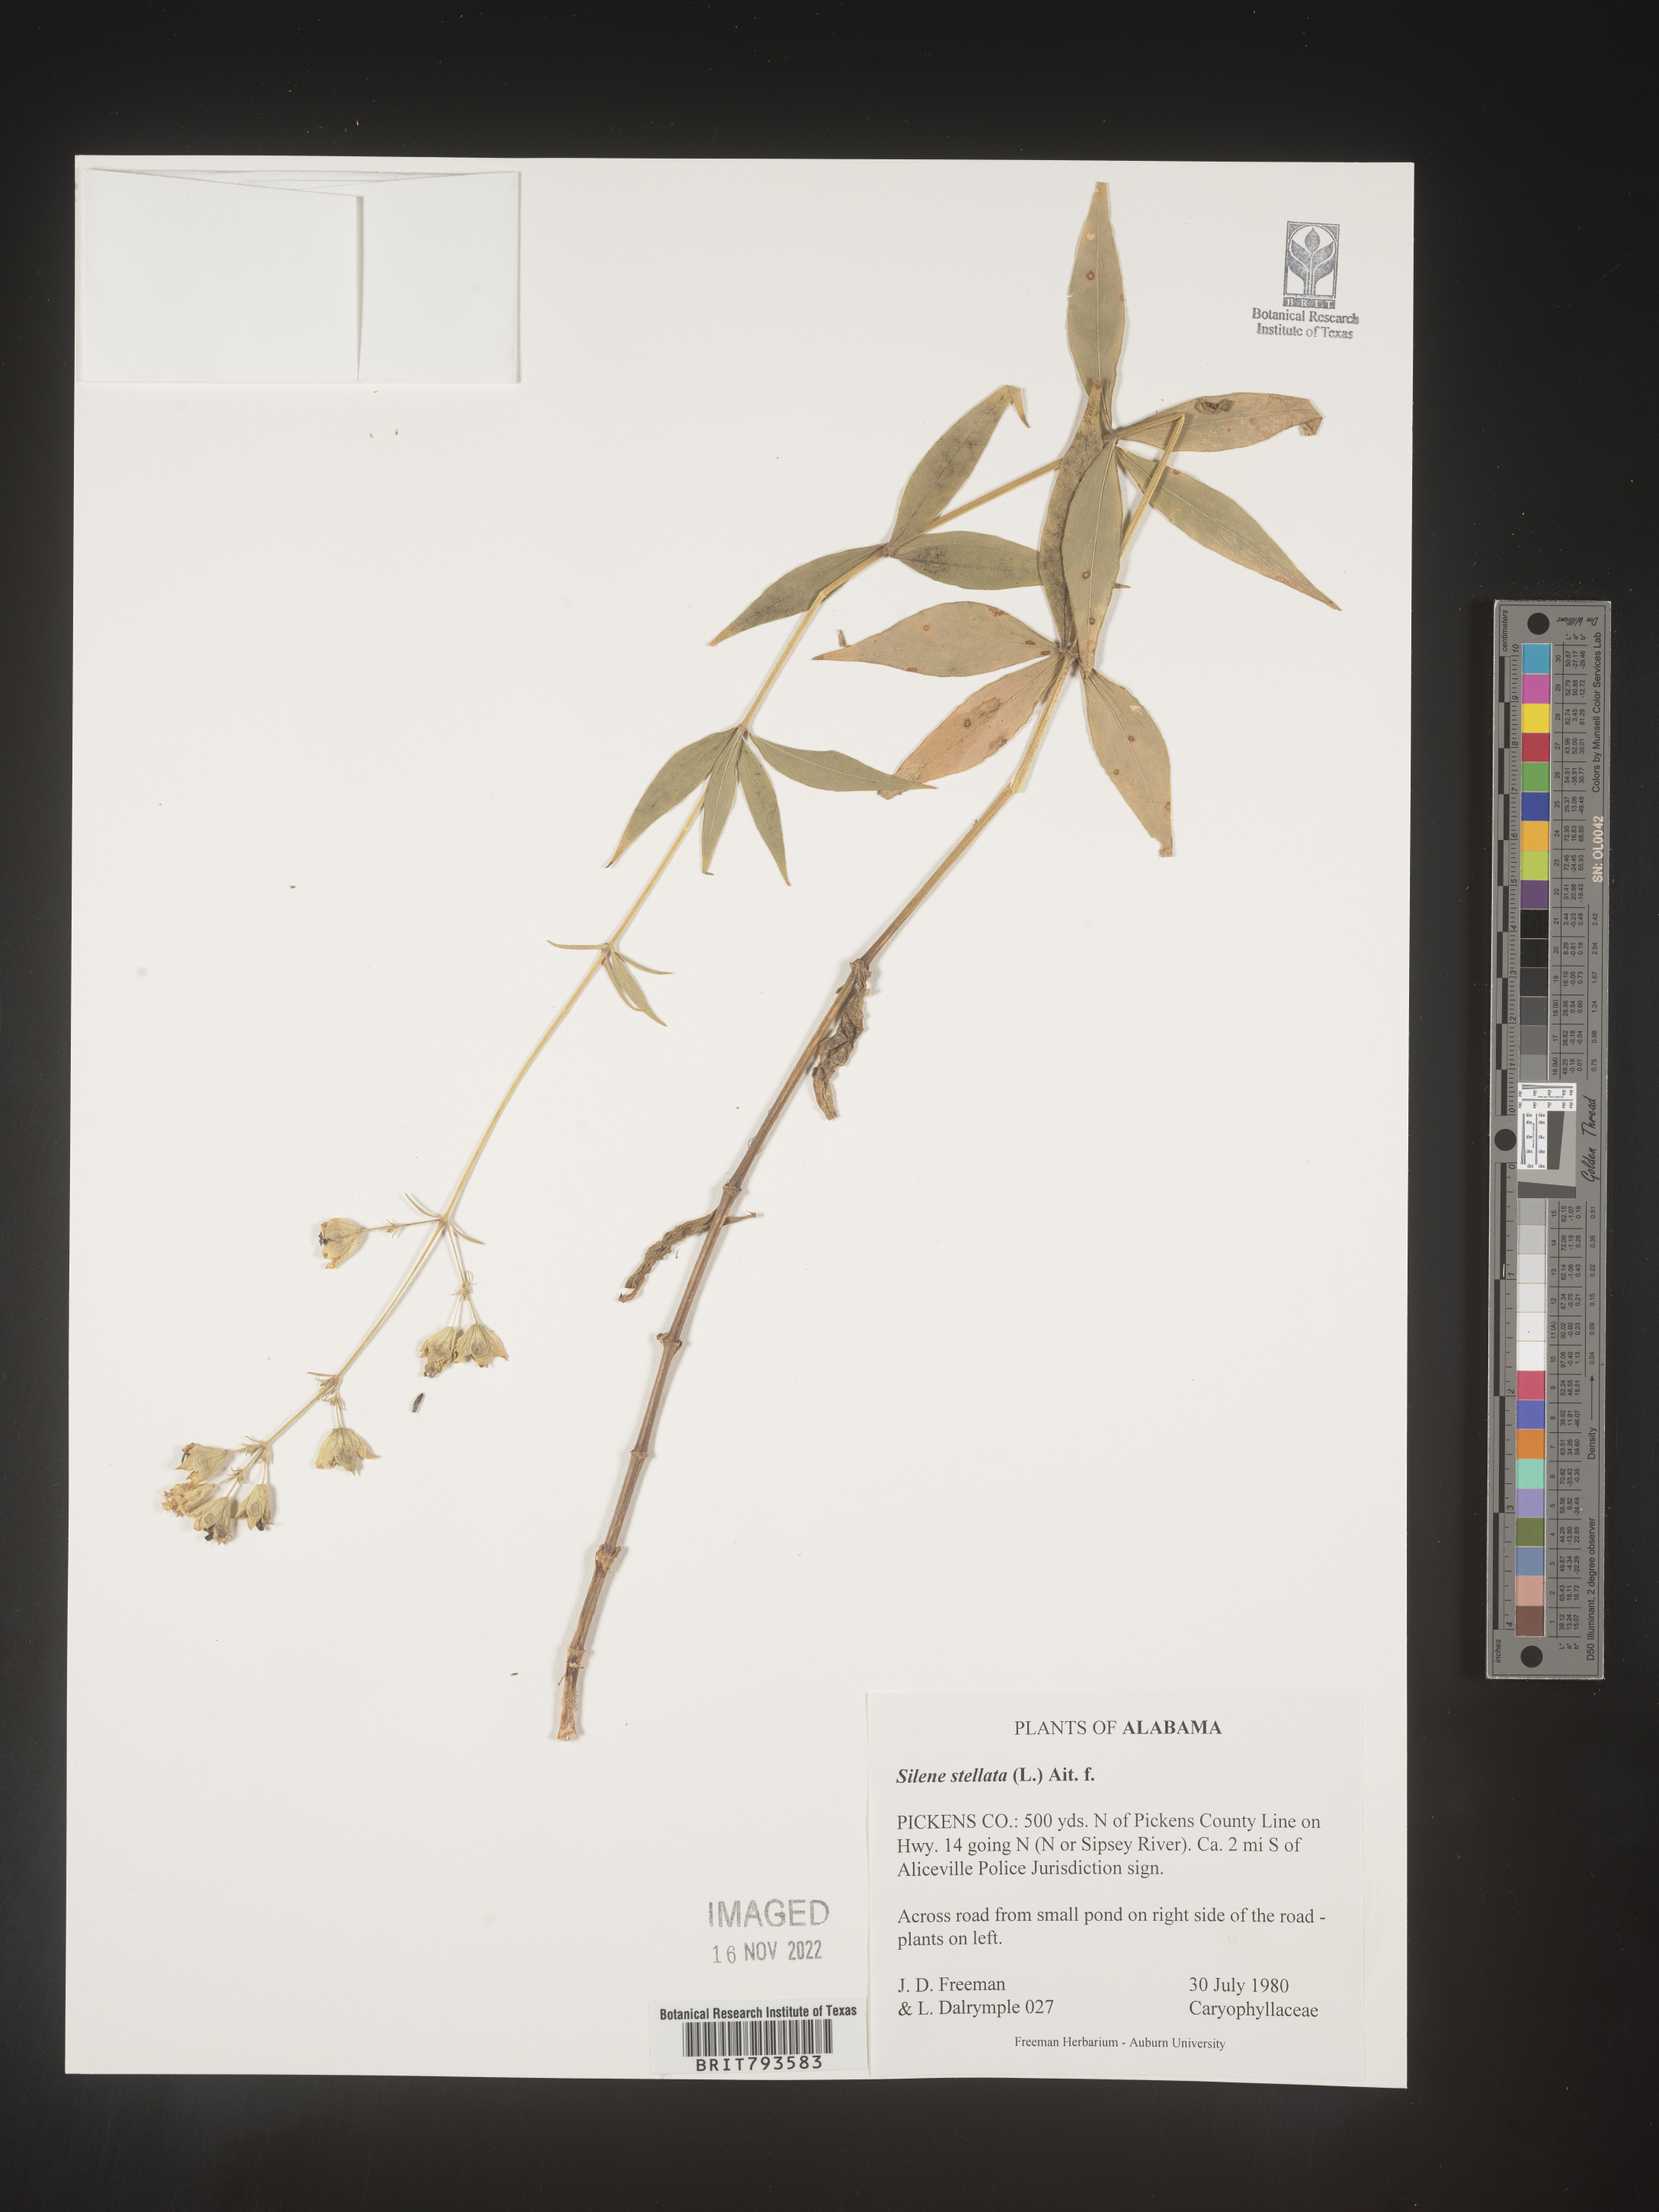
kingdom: Plantae
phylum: Tracheophyta
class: Magnoliopsida
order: Caryophyllales
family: Caryophyllaceae
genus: Silene
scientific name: Silene stellata
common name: Starry campion
